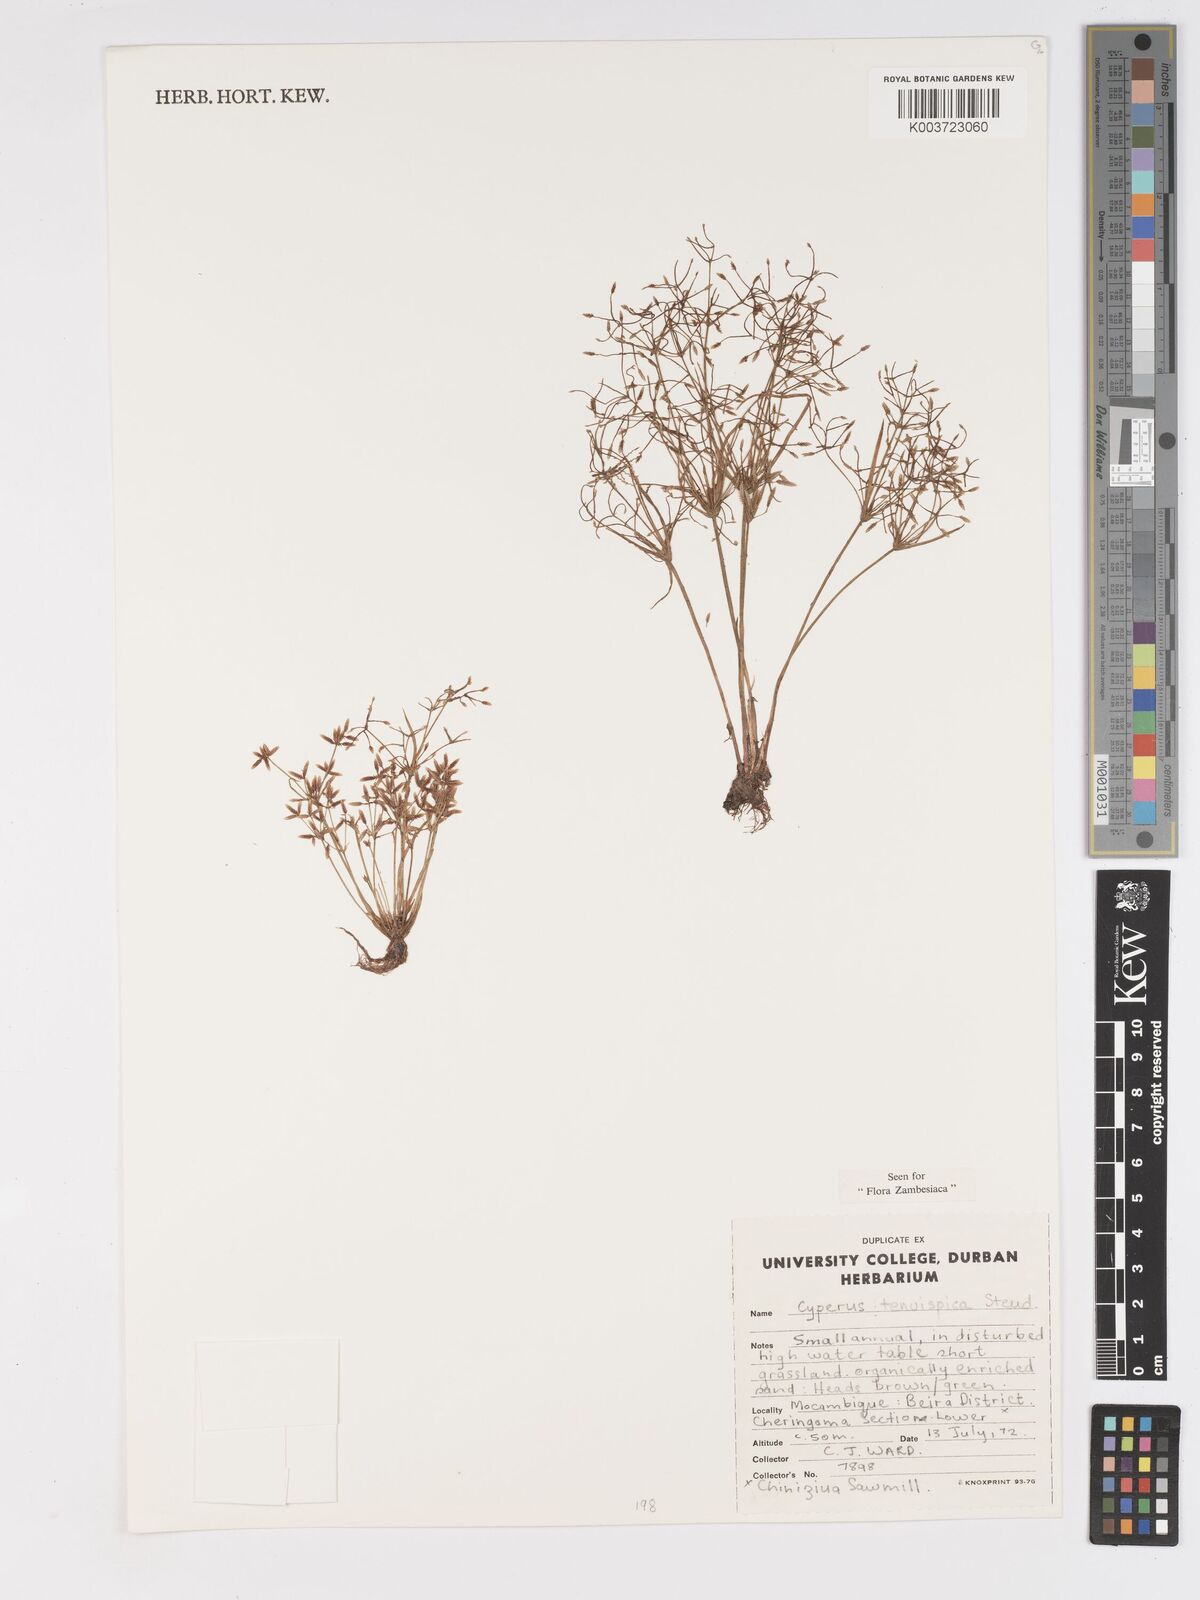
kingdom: Plantae
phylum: Tracheophyta
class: Liliopsida
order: Poales
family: Cyperaceae
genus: Cyperus
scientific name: Cyperus tenuispica
